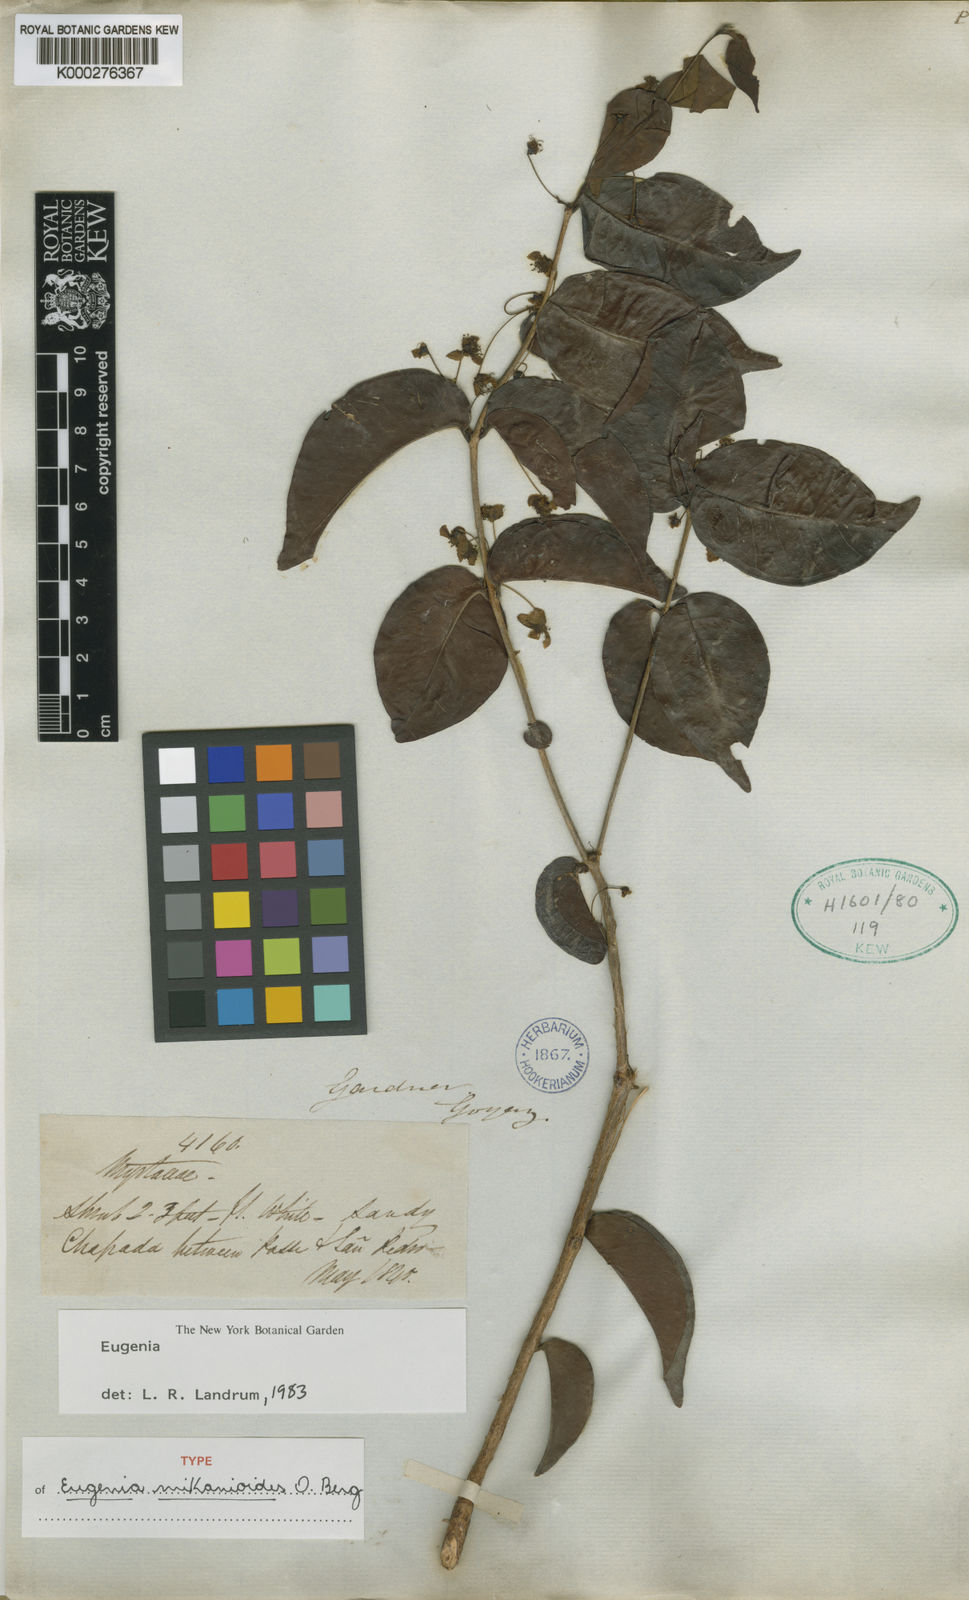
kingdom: Plantae
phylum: Tracheophyta
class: Magnoliopsida
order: Myrtales
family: Myrtaceae
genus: Eugenia
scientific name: Eugenia candolleana
